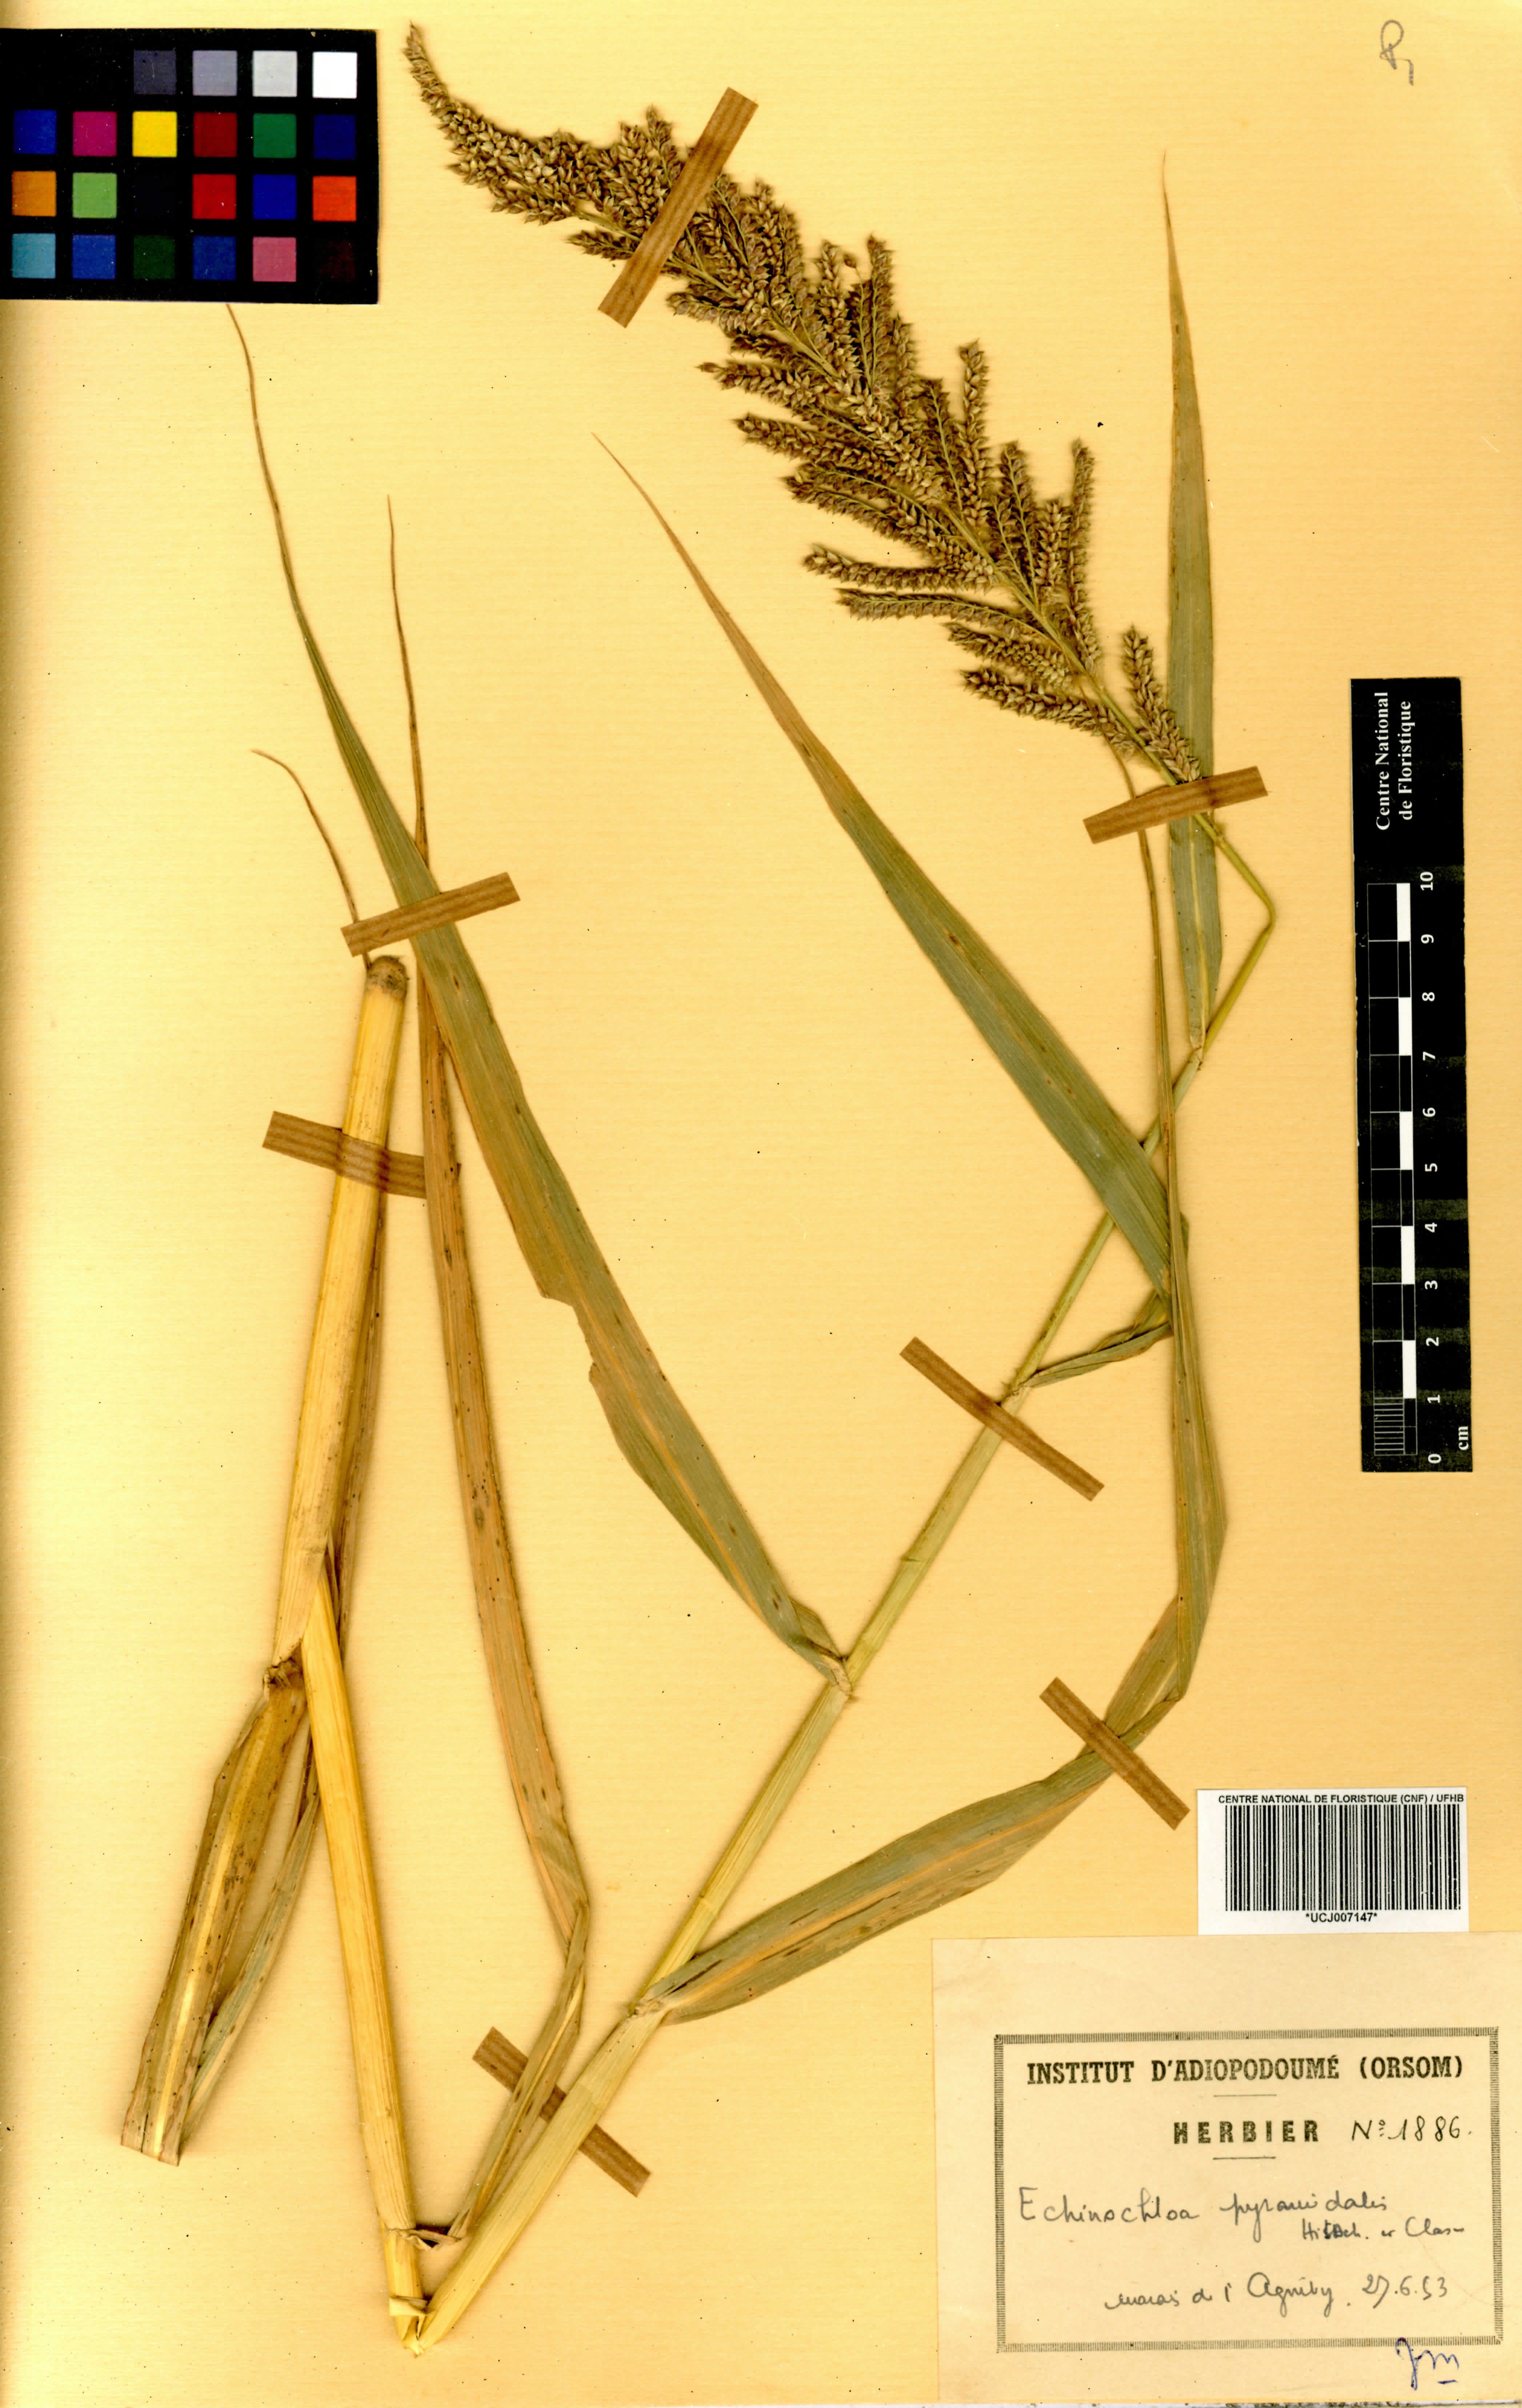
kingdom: Plantae
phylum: Tracheophyta
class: Liliopsida
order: Poales
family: Poaceae
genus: Echinochloa
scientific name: Echinochloa pyramidalis
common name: Antelope grass
